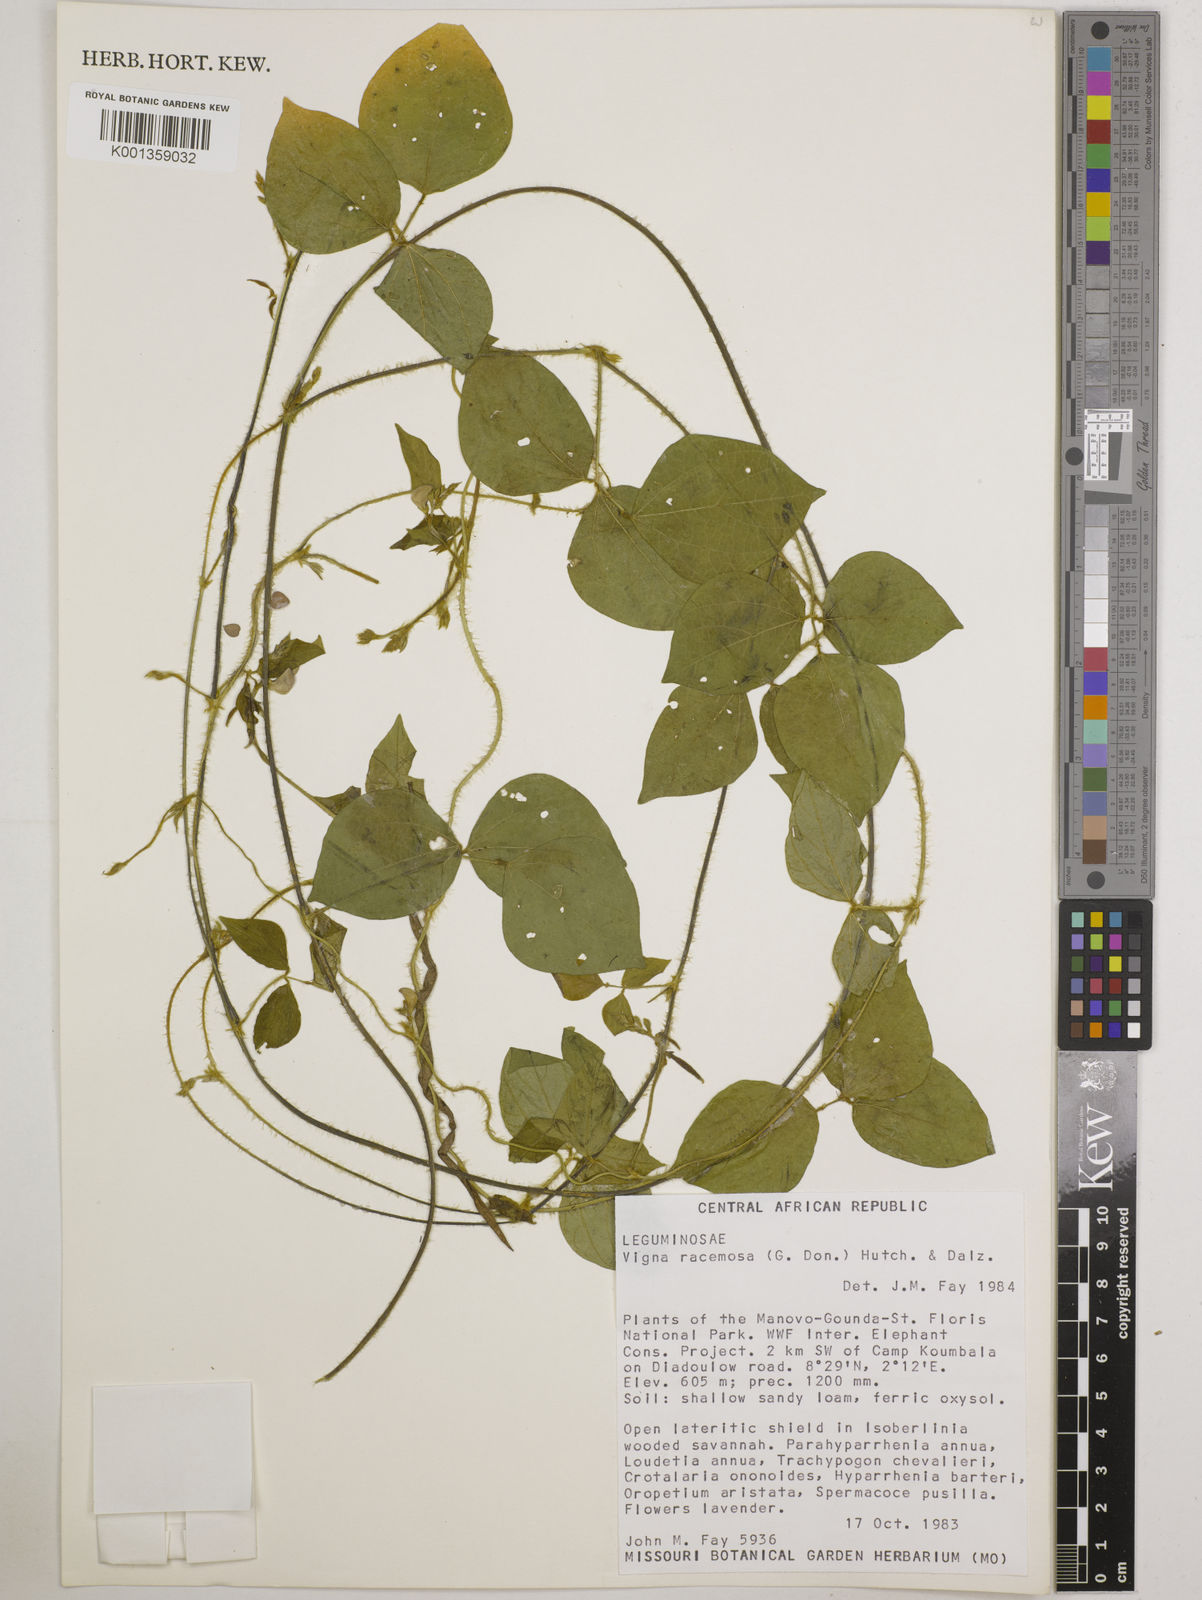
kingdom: Plantae
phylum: Tracheophyta
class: Magnoliopsida
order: Fabales
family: Fabaceae
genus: Vigna
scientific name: Vigna racemosa
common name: Beans not eaten
